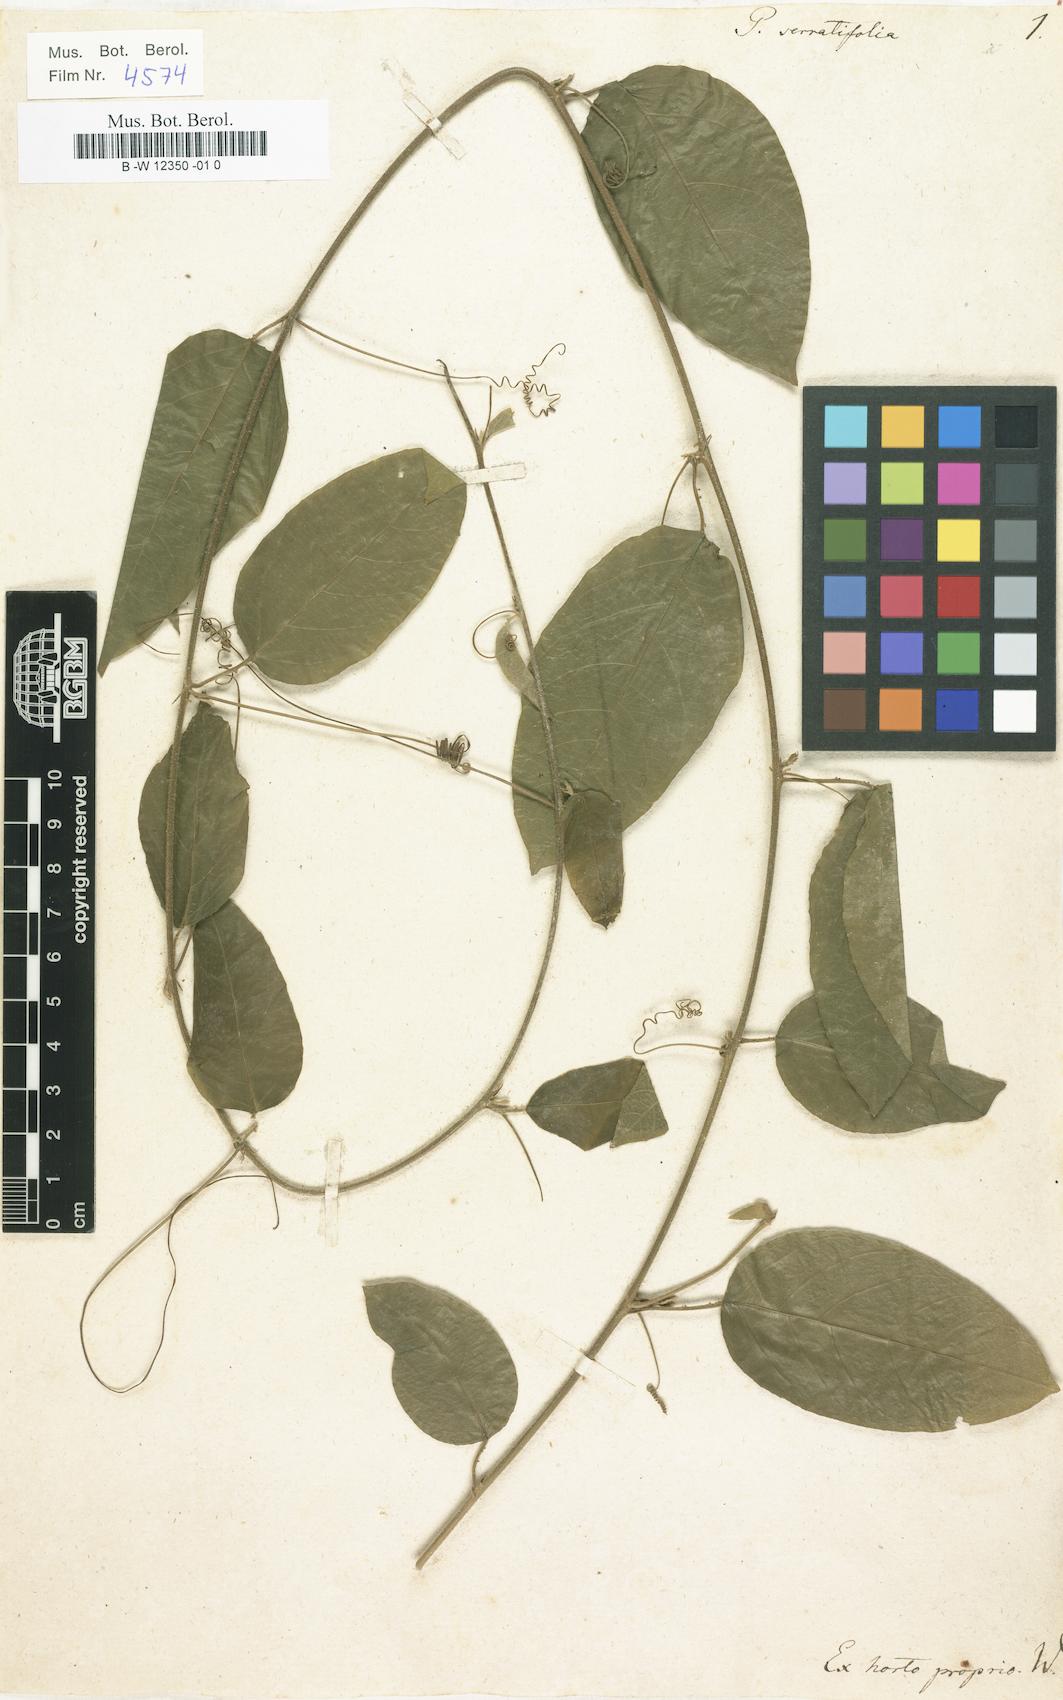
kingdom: Plantae
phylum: Tracheophyta
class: Magnoliopsida
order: Malpighiales
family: Passifloraceae
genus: Passiflora
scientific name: Passiflora serratifolia
